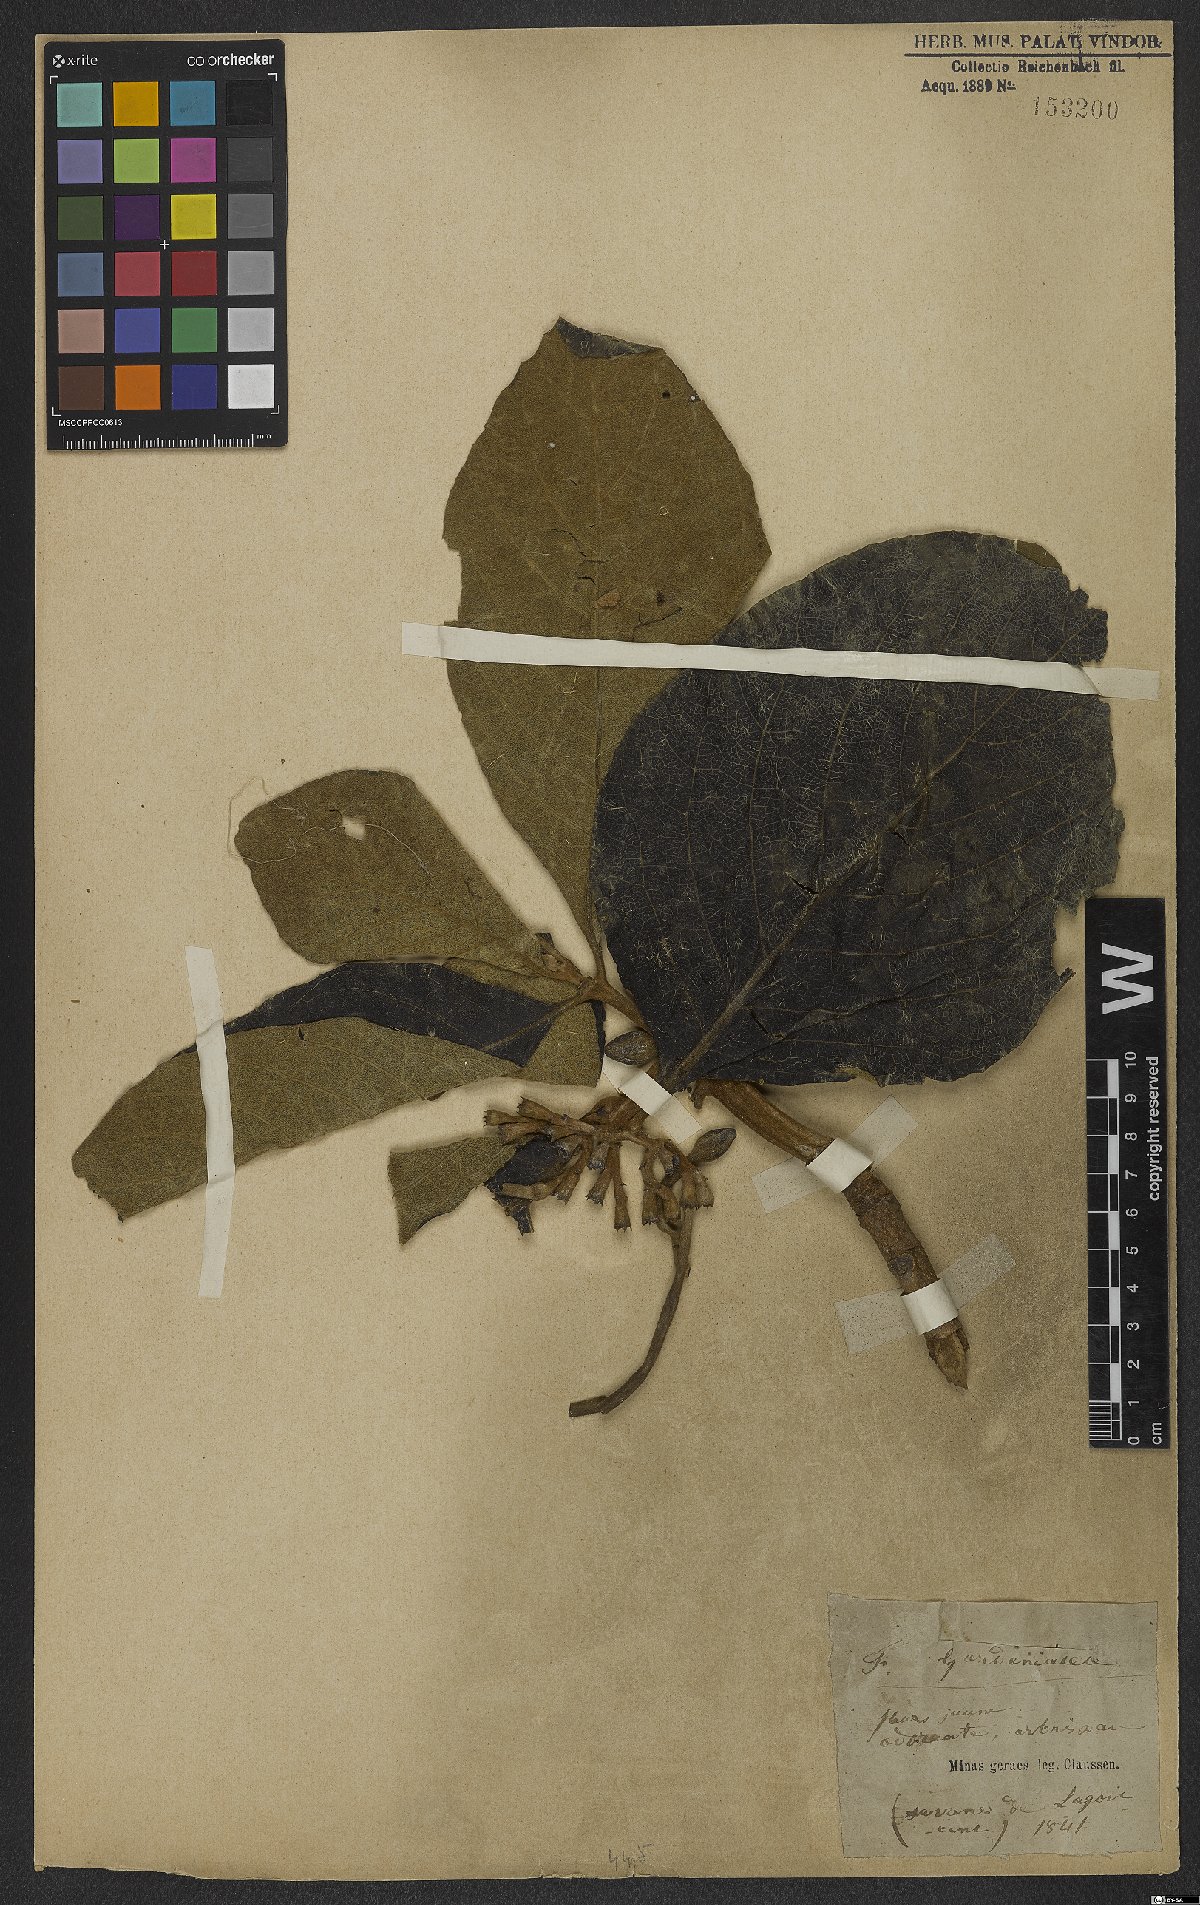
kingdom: Plantae
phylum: Tracheophyta
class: Magnoliopsida
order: Gentianales
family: Rubiaceae
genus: Gardenia
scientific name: Gardenia
